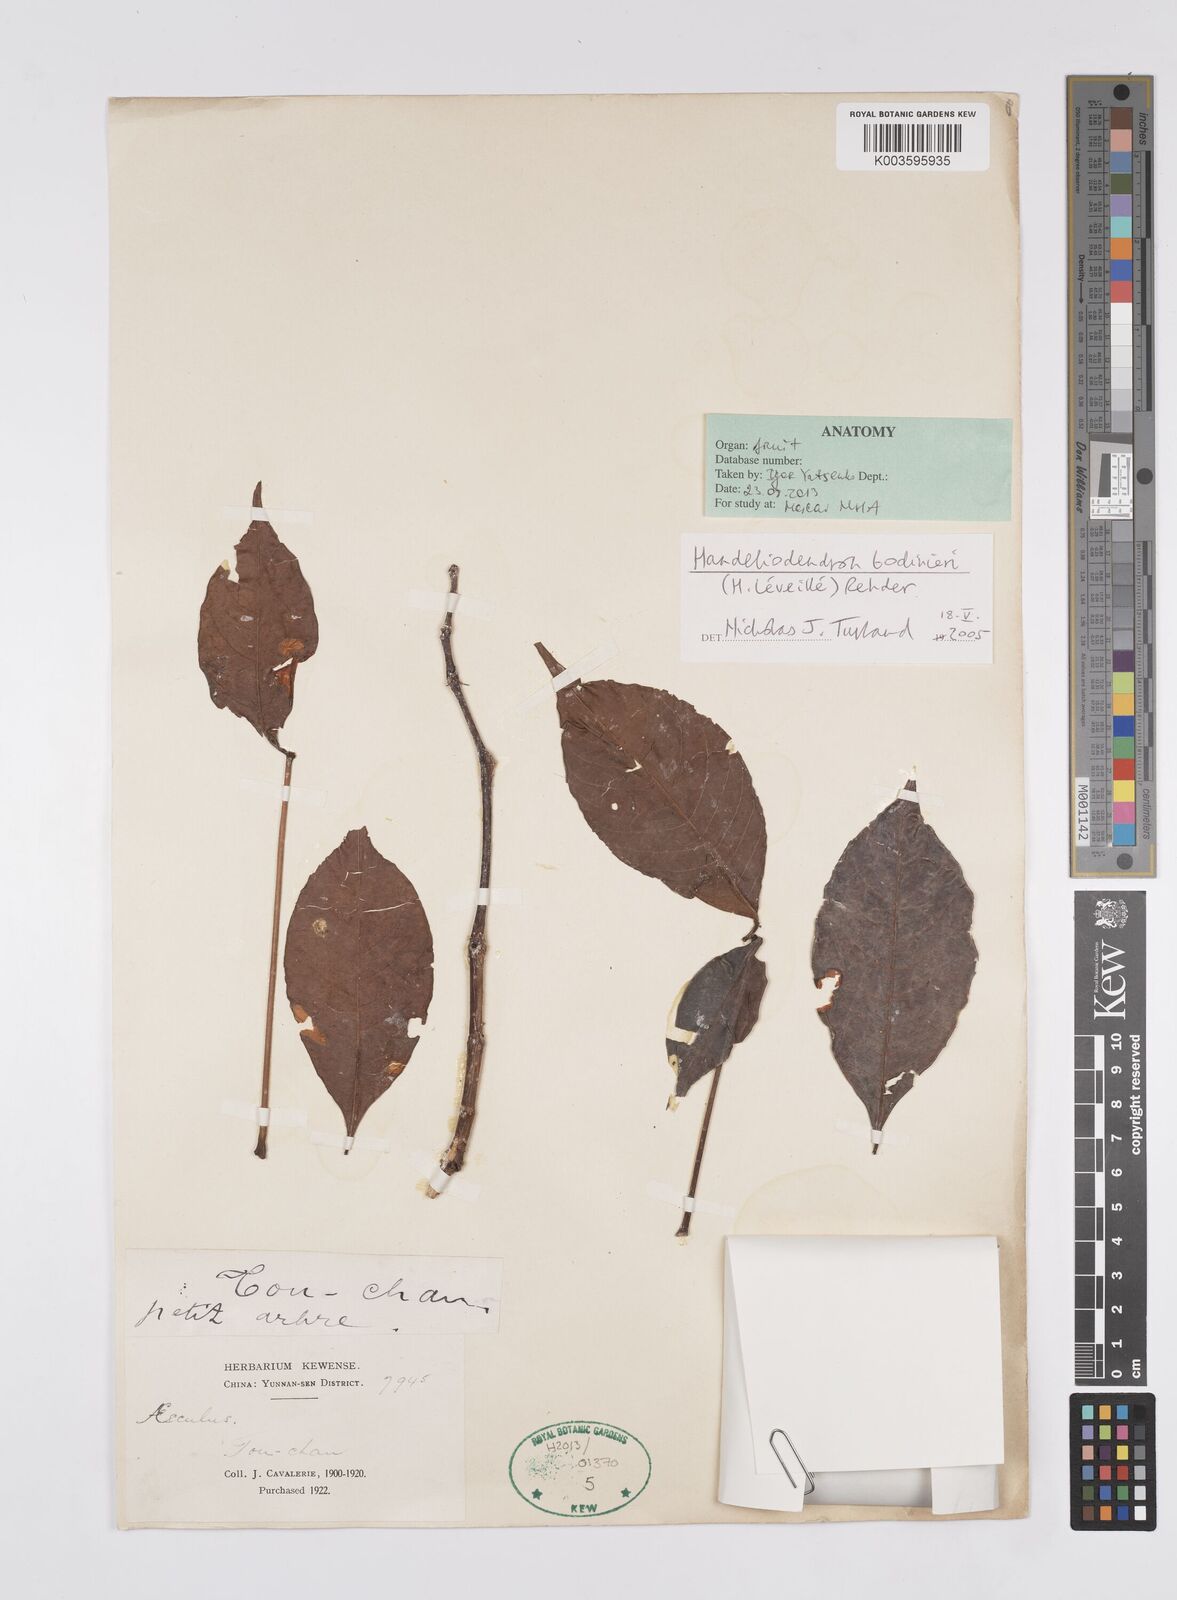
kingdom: Plantae
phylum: Tracheophyta
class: Magnoliopsida
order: Sapindales
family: Sapindaceae
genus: Handeliodendron
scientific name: Handeliodendron bodinieri
